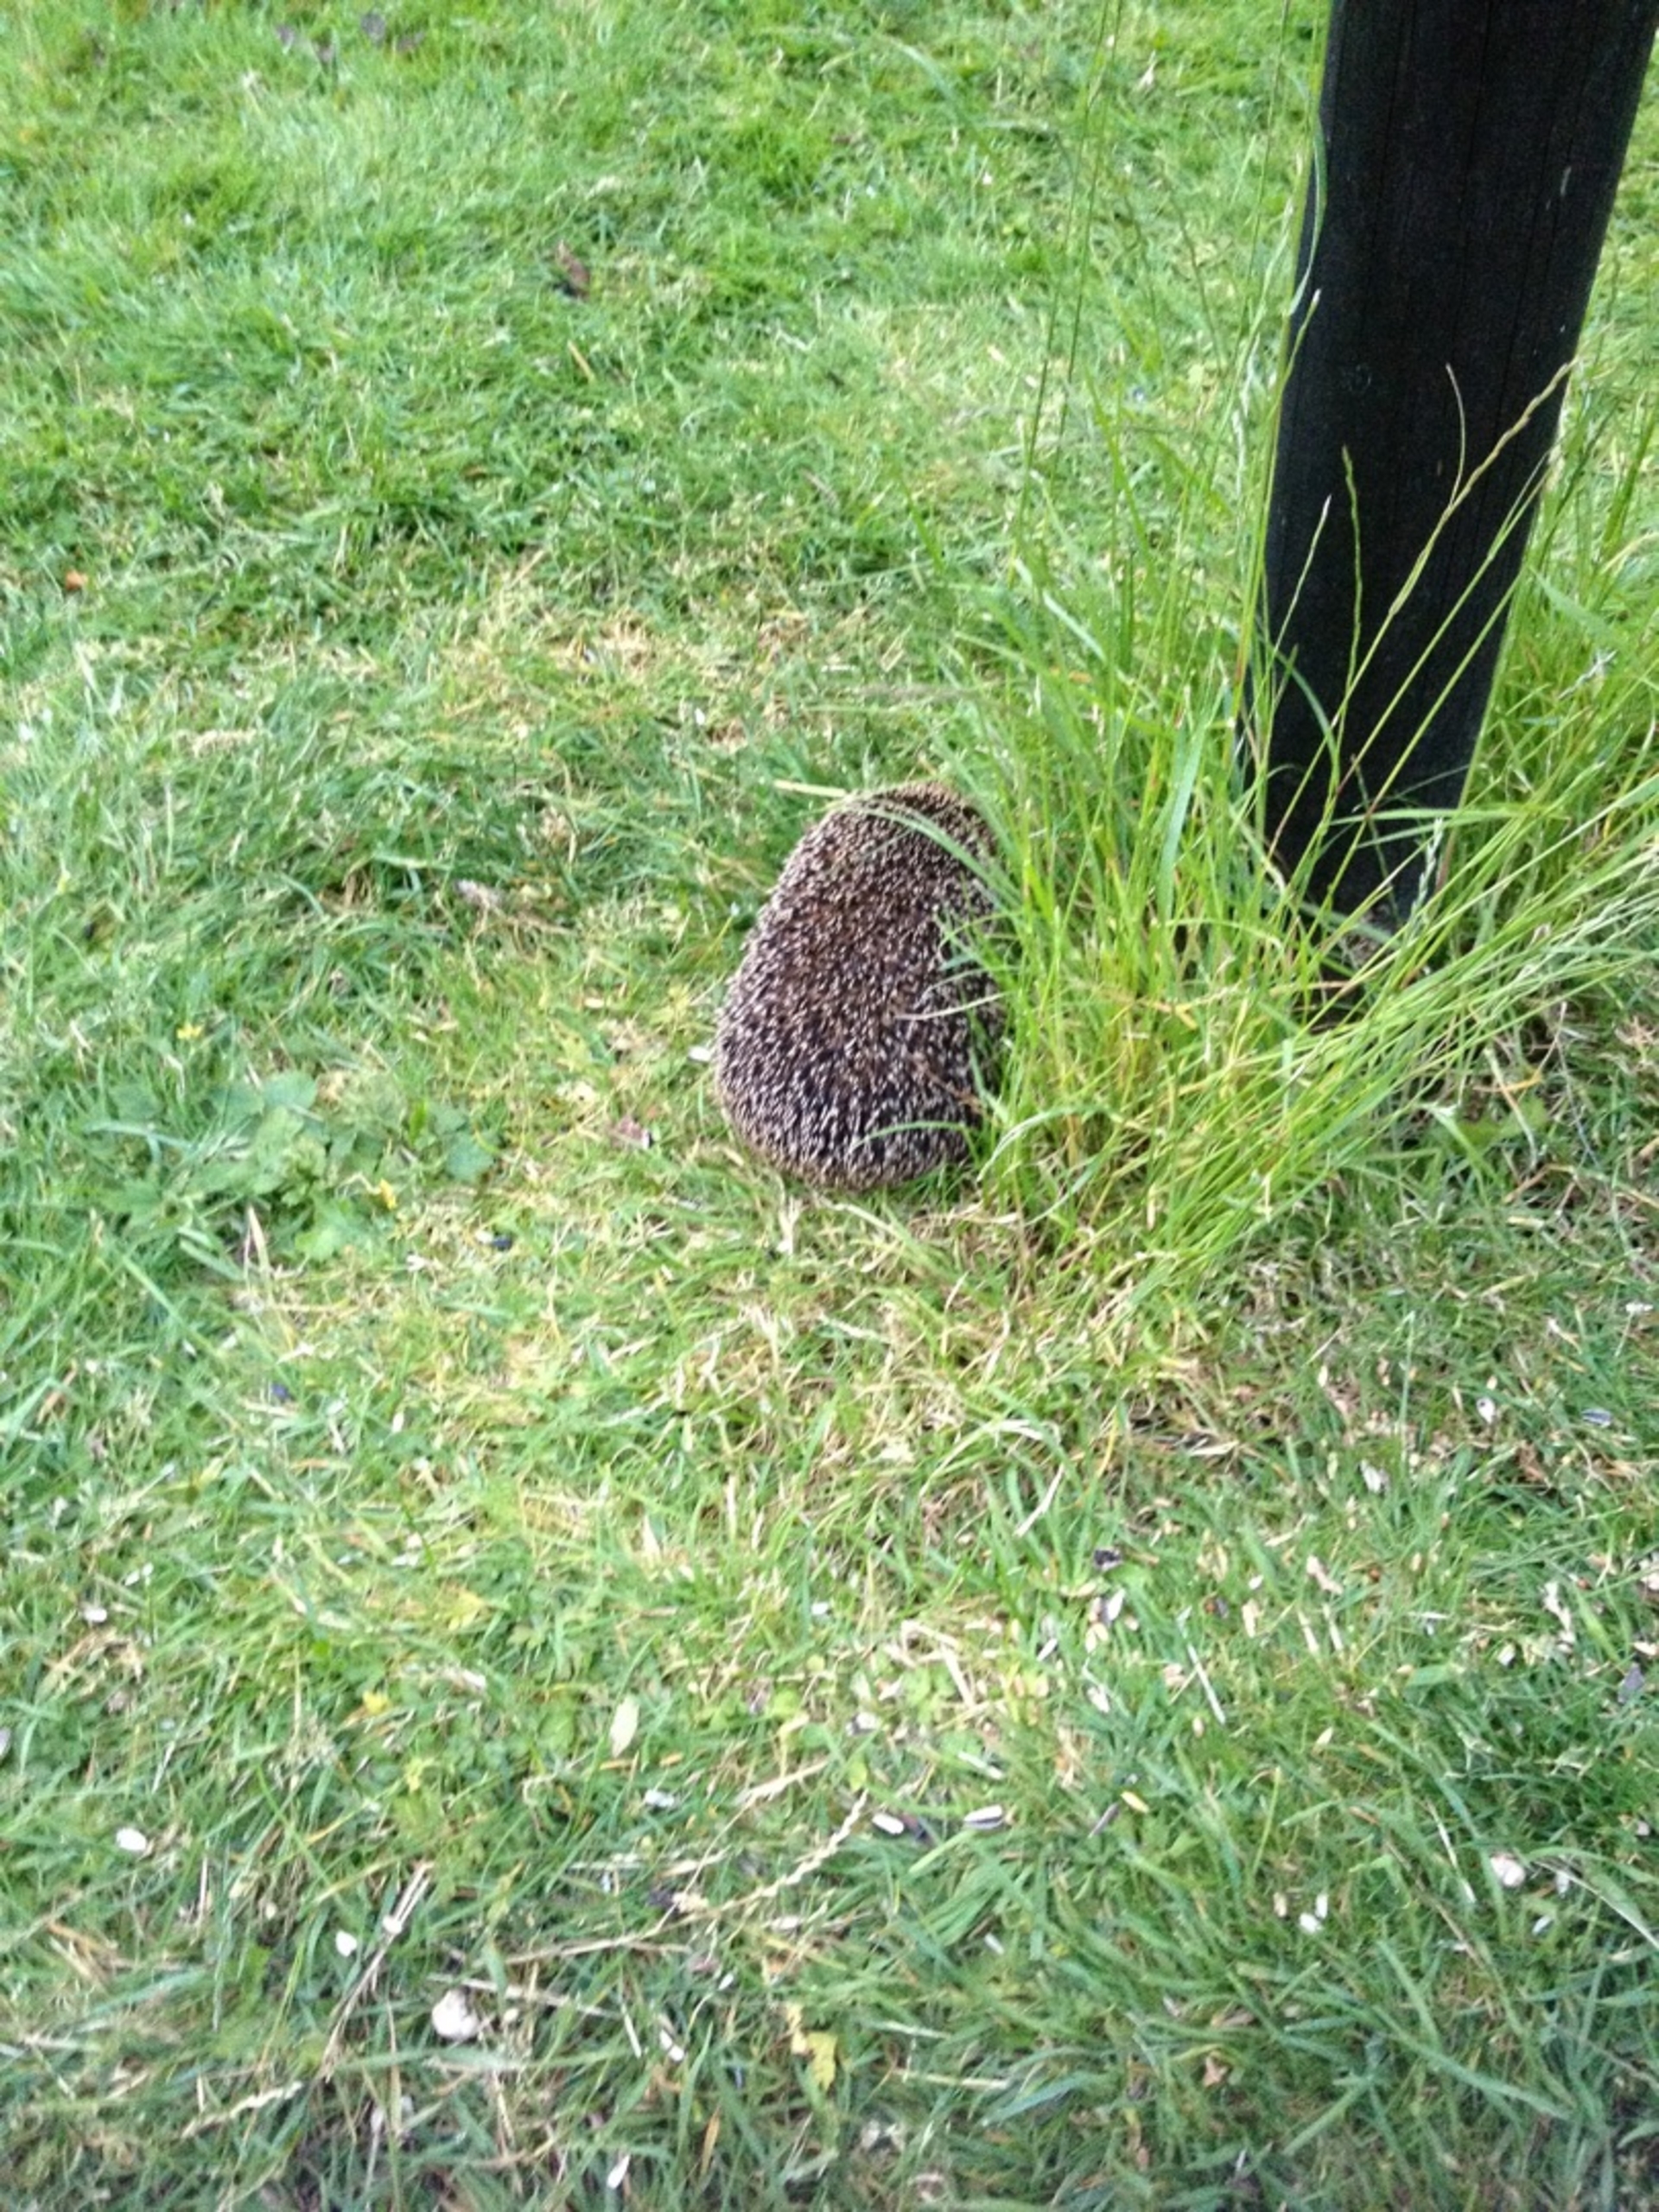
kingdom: Animalia
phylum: Chordata
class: Mammalia
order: Erinaceomorpha
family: Erinaceidae
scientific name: Erinaceidae
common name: Pindsvin
